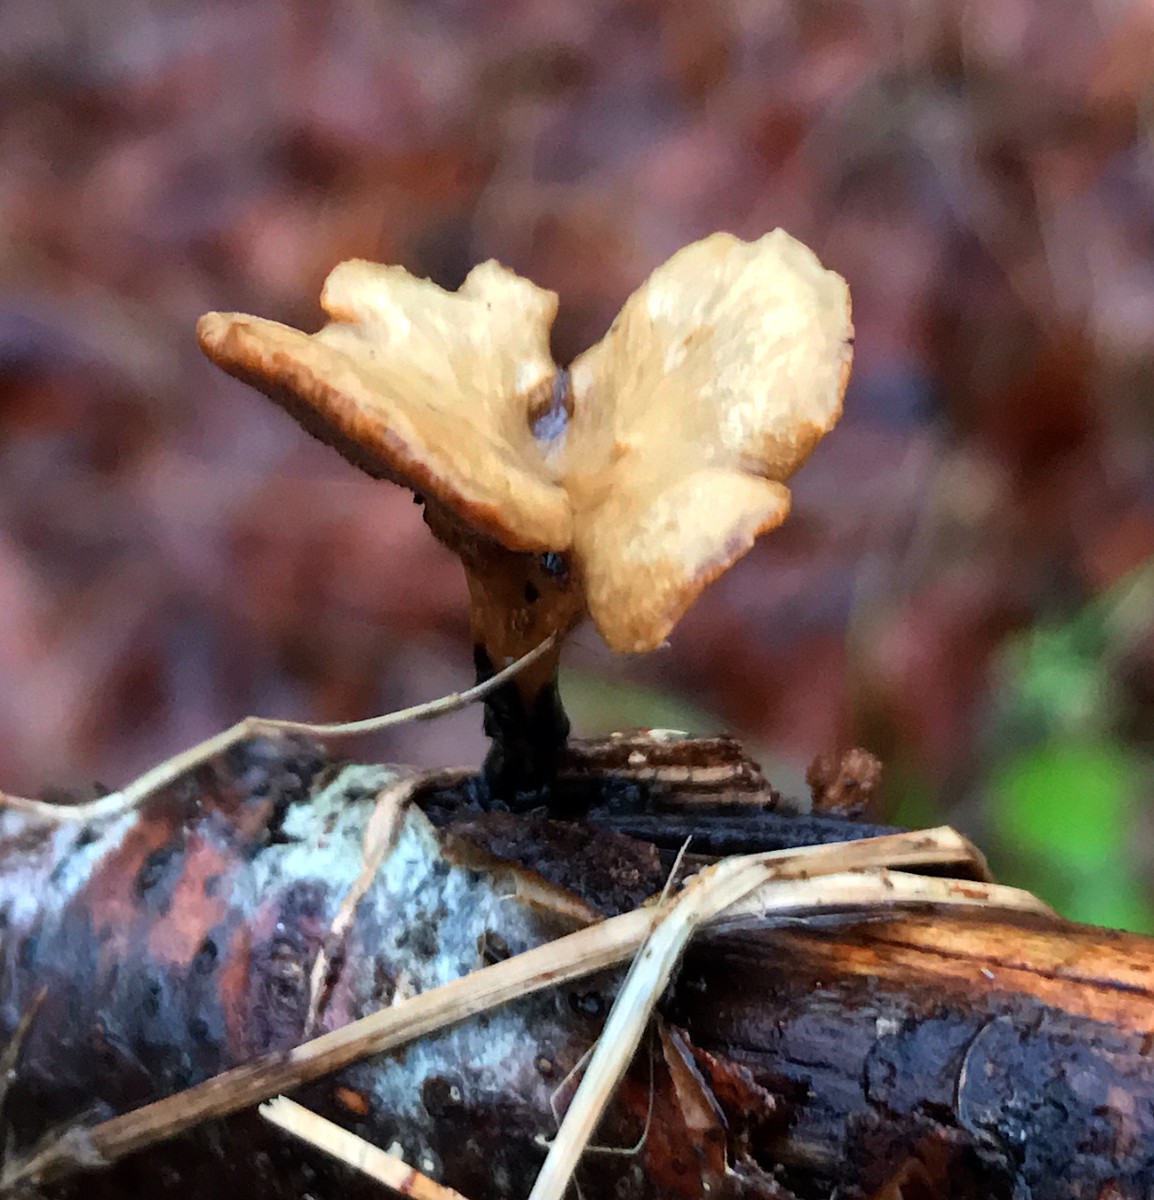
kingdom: Fungi
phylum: Basidiomycota
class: Agaricomycetes
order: Polyporales
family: Polyporaceae
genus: Cerioporus
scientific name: Cerioporus varius
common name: foranderlig stilkporesvamp
